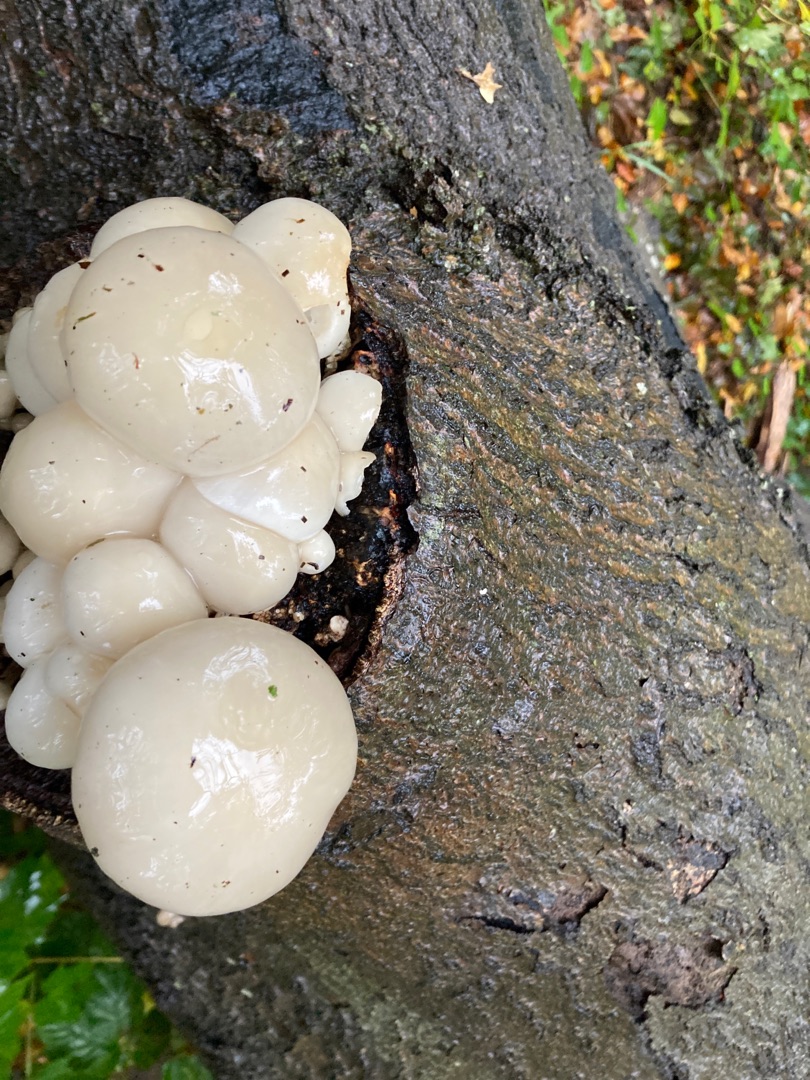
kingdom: Fungi
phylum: Basidiomycota
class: Agaricomycetes
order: Agaricales
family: Physalacriaceae
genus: Mucidula
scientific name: Mucidula mucida
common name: Porcelænshat
